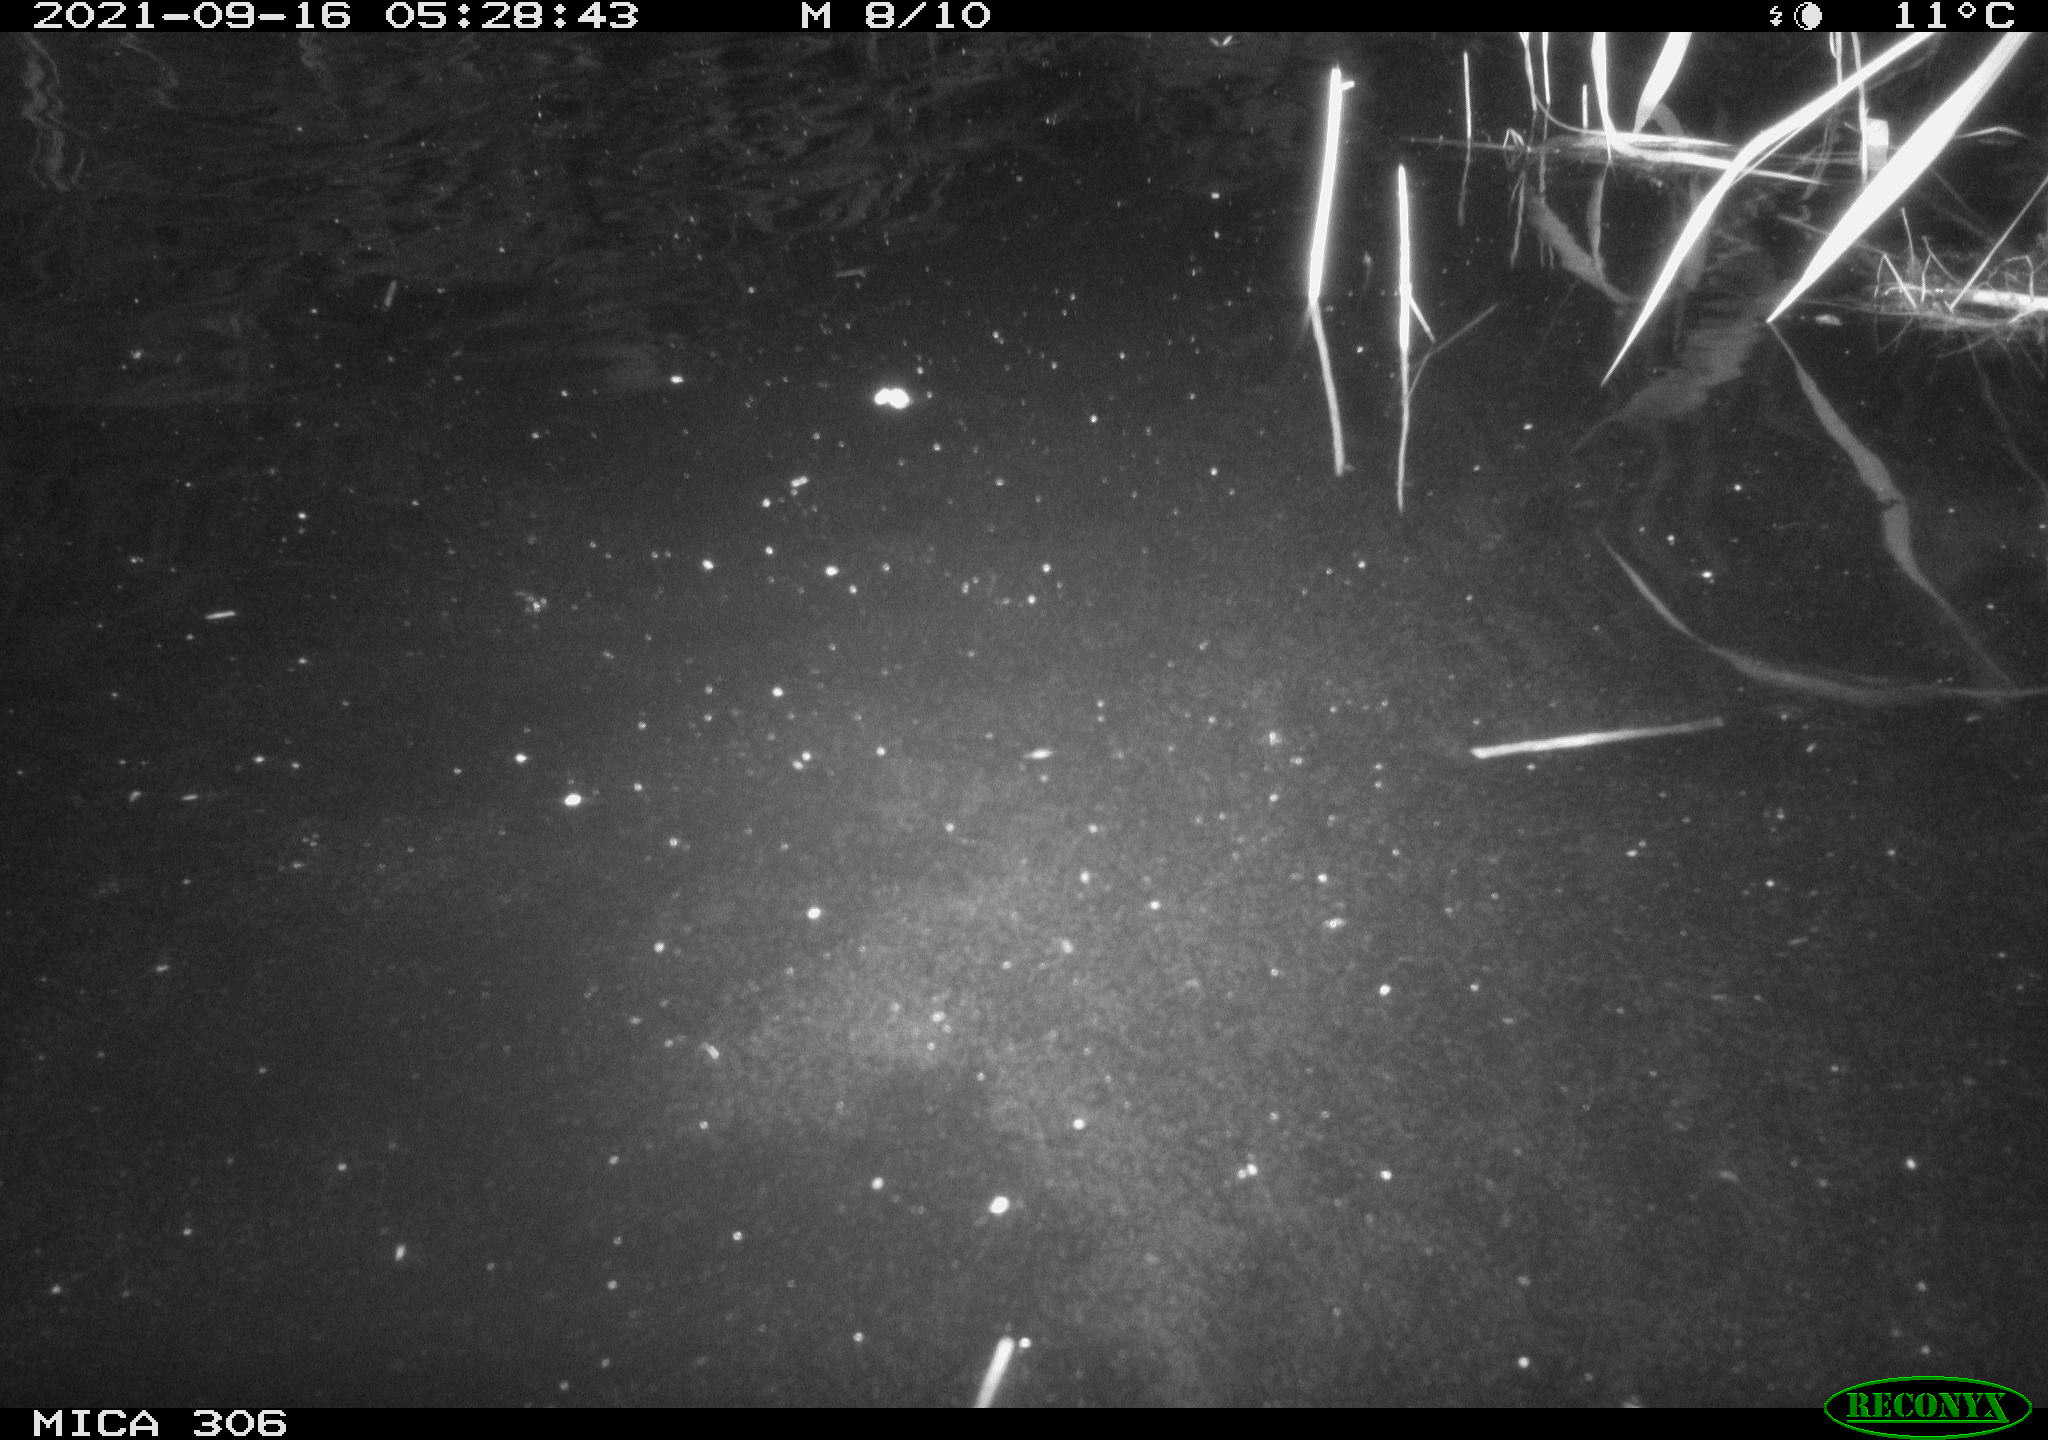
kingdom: Animalia
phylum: Chordata
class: Mammalia
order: Rodentia
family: Cricetidae
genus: Ondatra
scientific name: Ondatra zibethicus
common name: Muskrat
